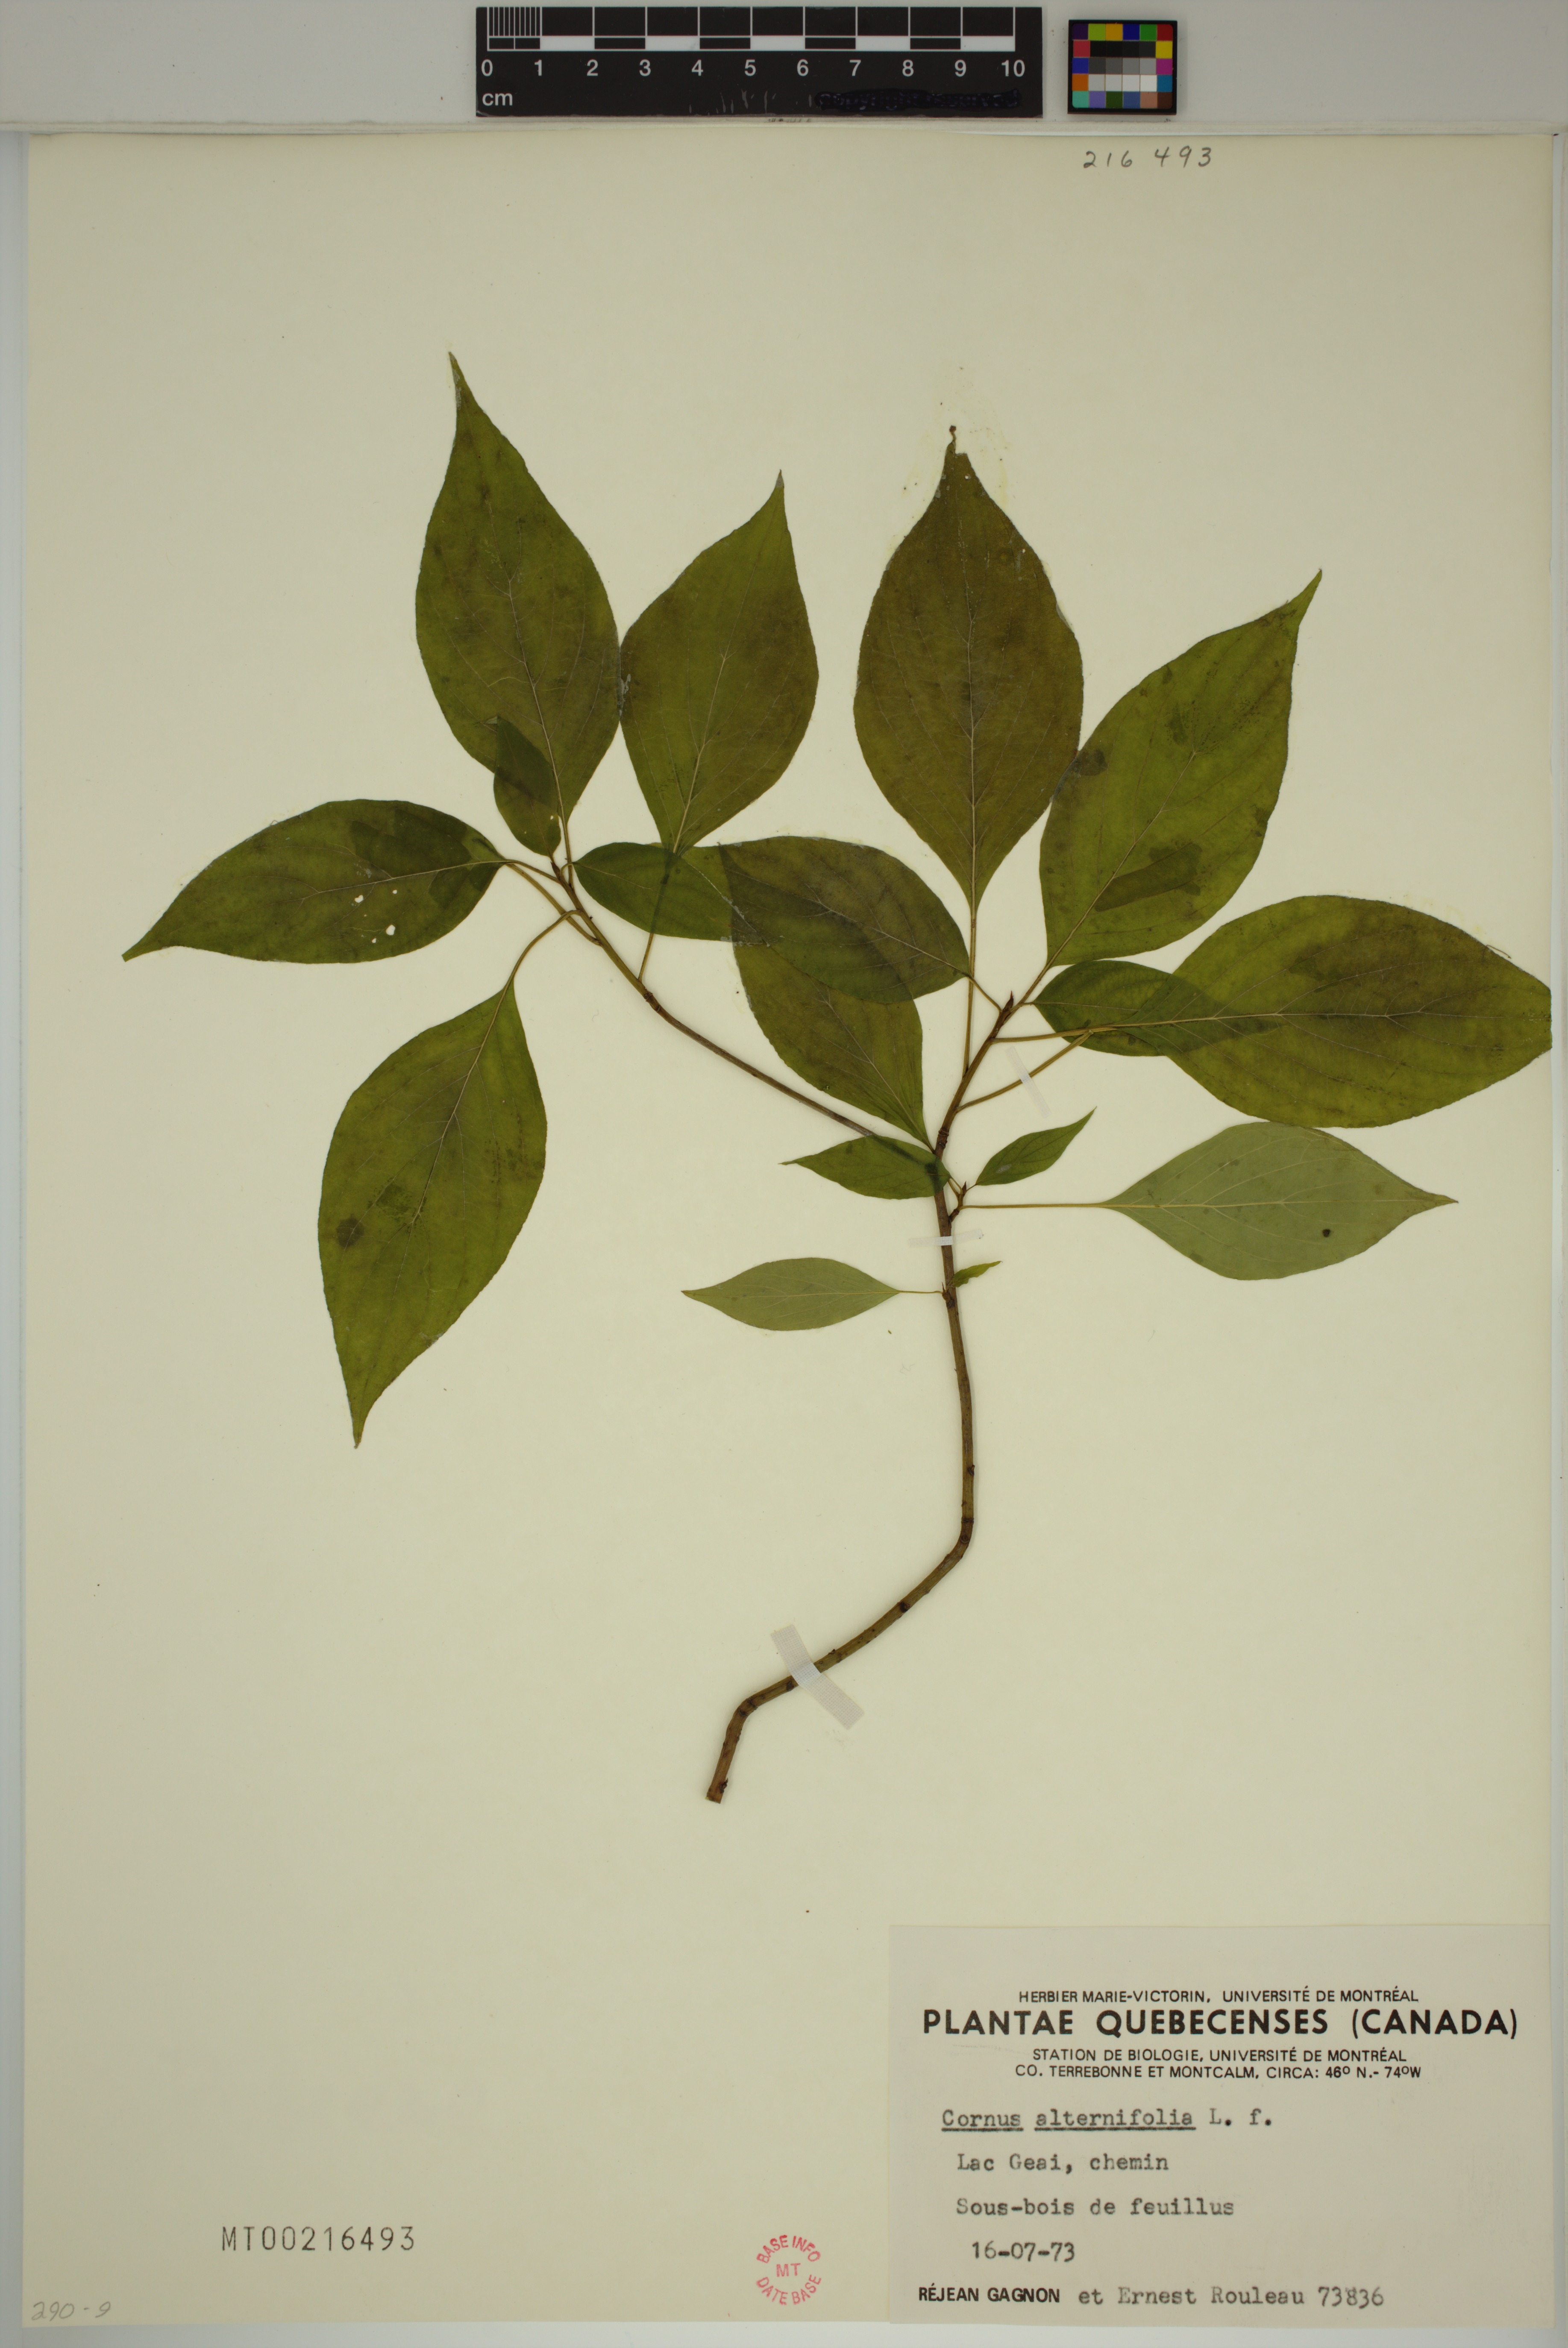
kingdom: Plantae
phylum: Tracheophyta
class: Magnoliopsida
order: Cornales
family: Cornaceae
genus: Cornus
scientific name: Cornus alternifolia
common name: Pagoda dogwood
